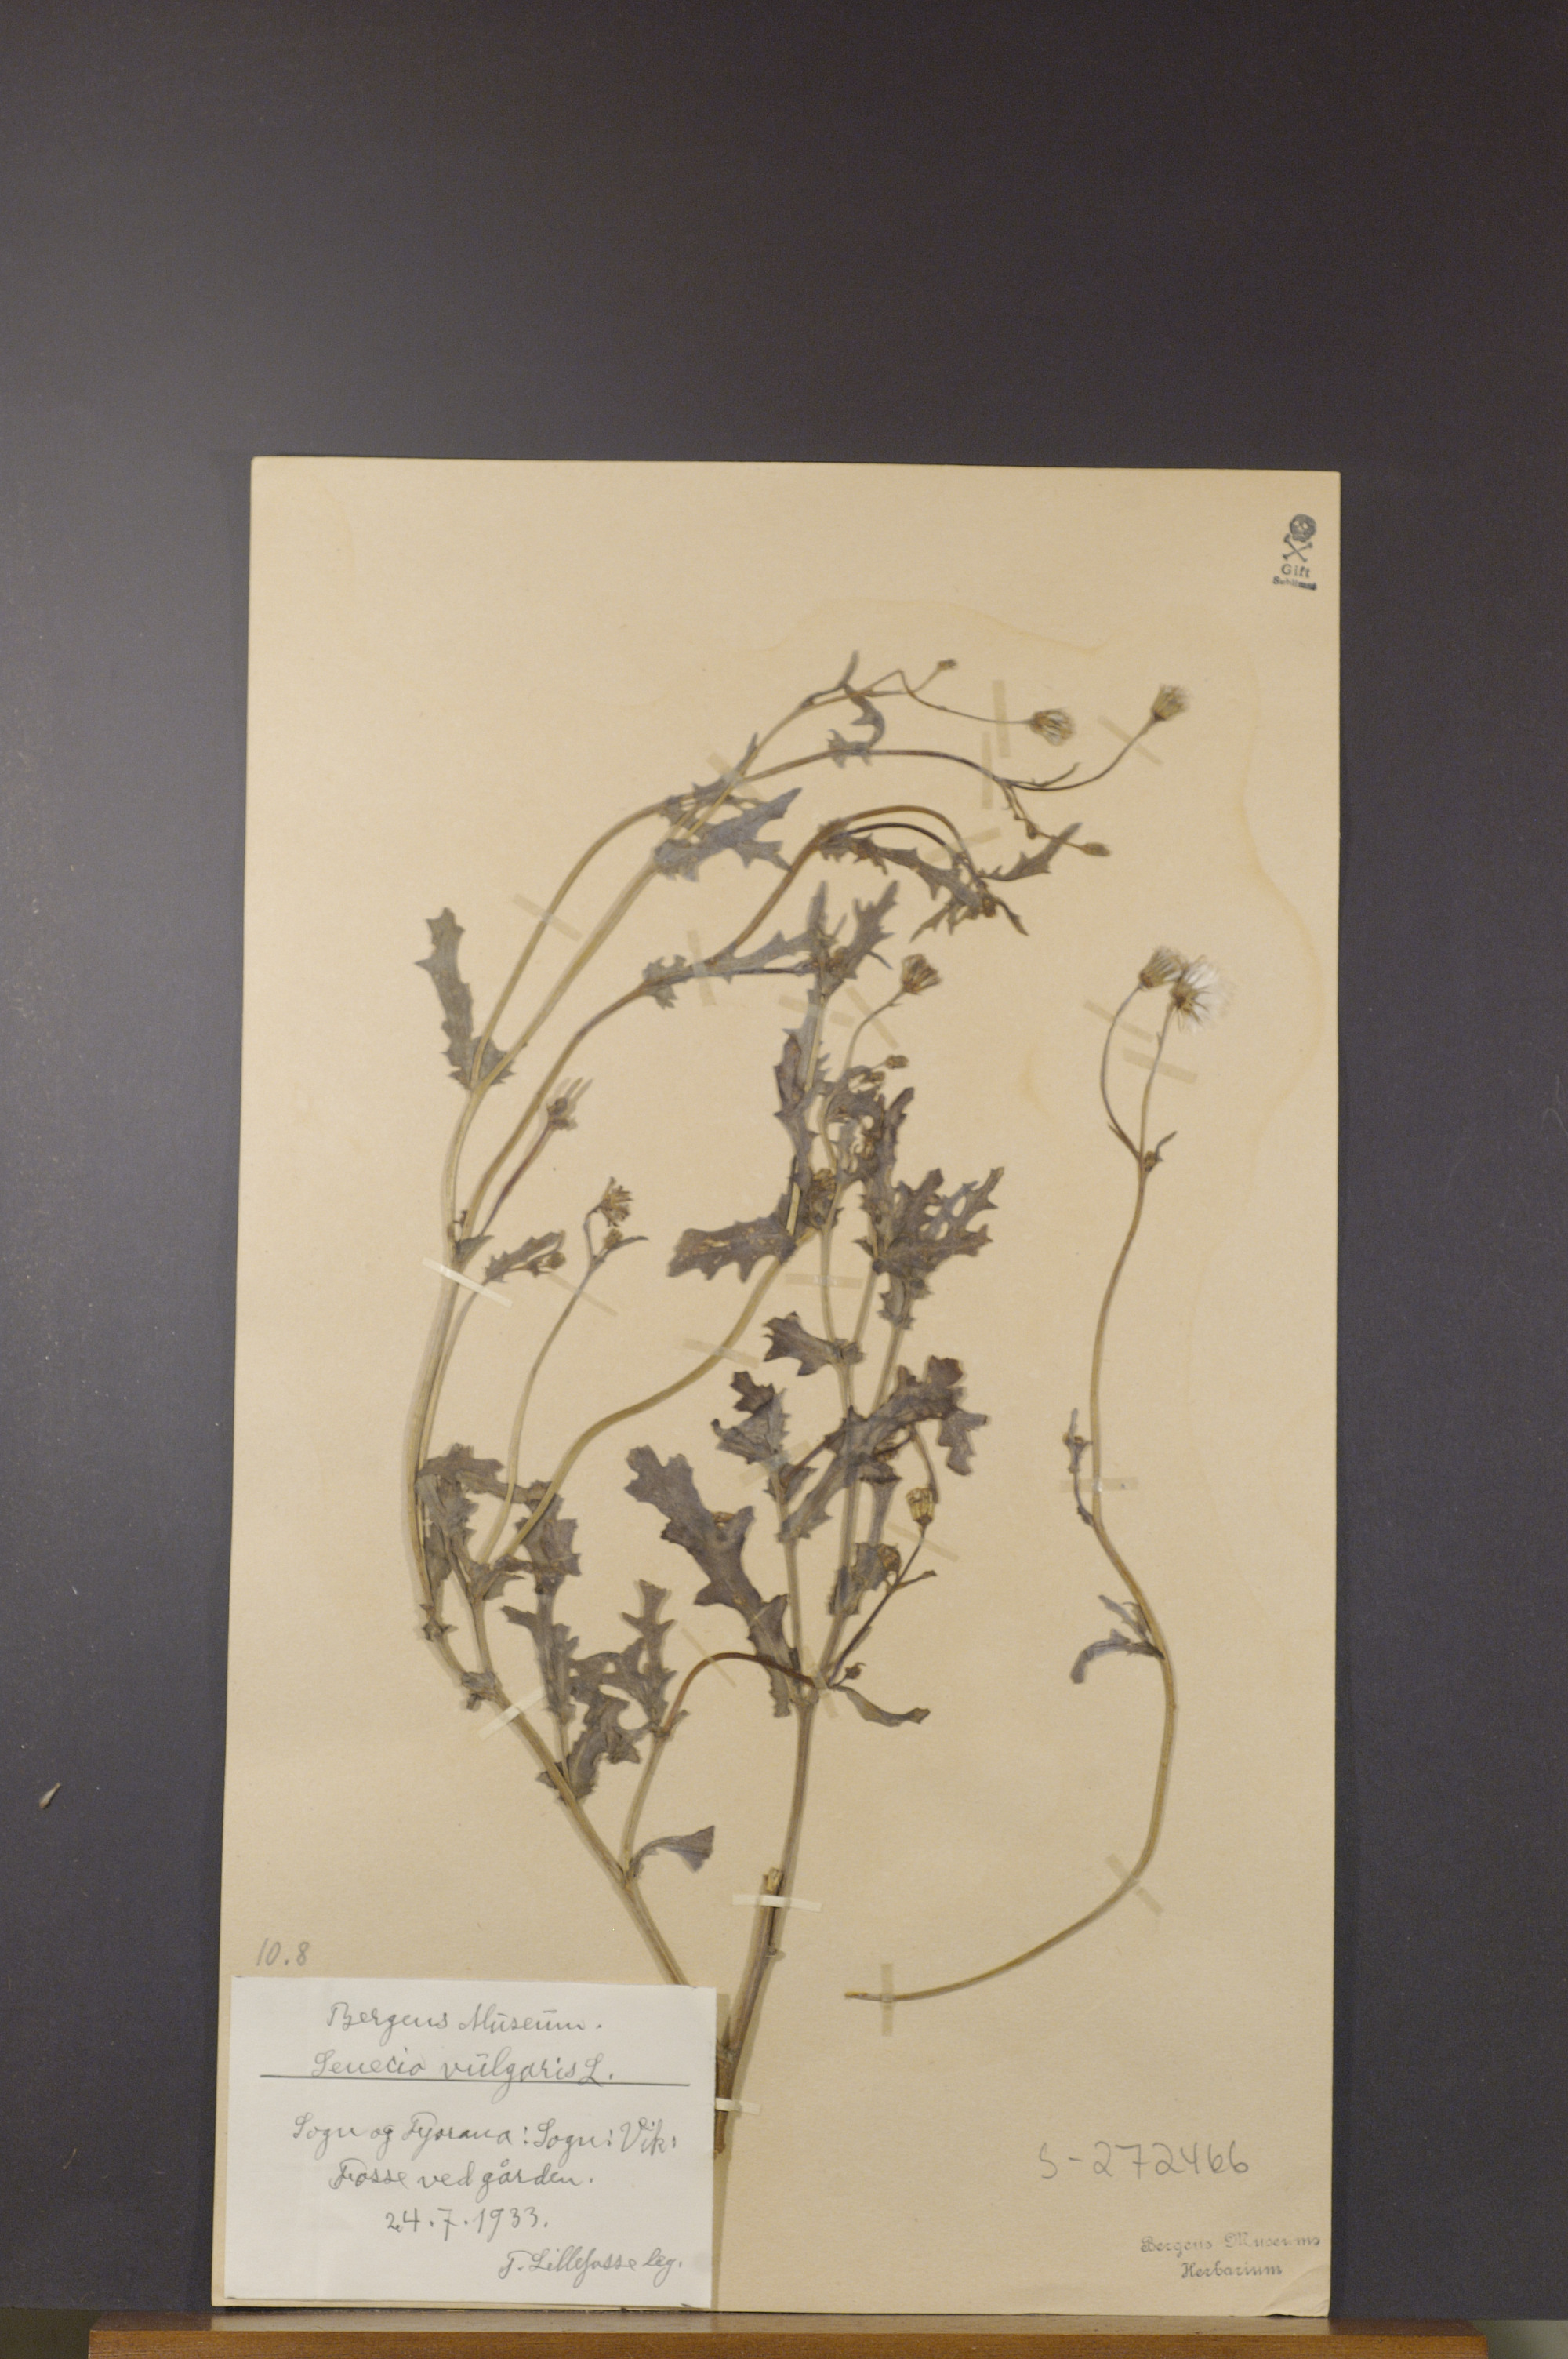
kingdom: Plantae
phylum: Tracheophyta
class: Magnoliopsida
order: Asterales
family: Asteraceae
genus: Senecio
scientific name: Senecio vulgaris
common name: Old-man-in-the-spring
